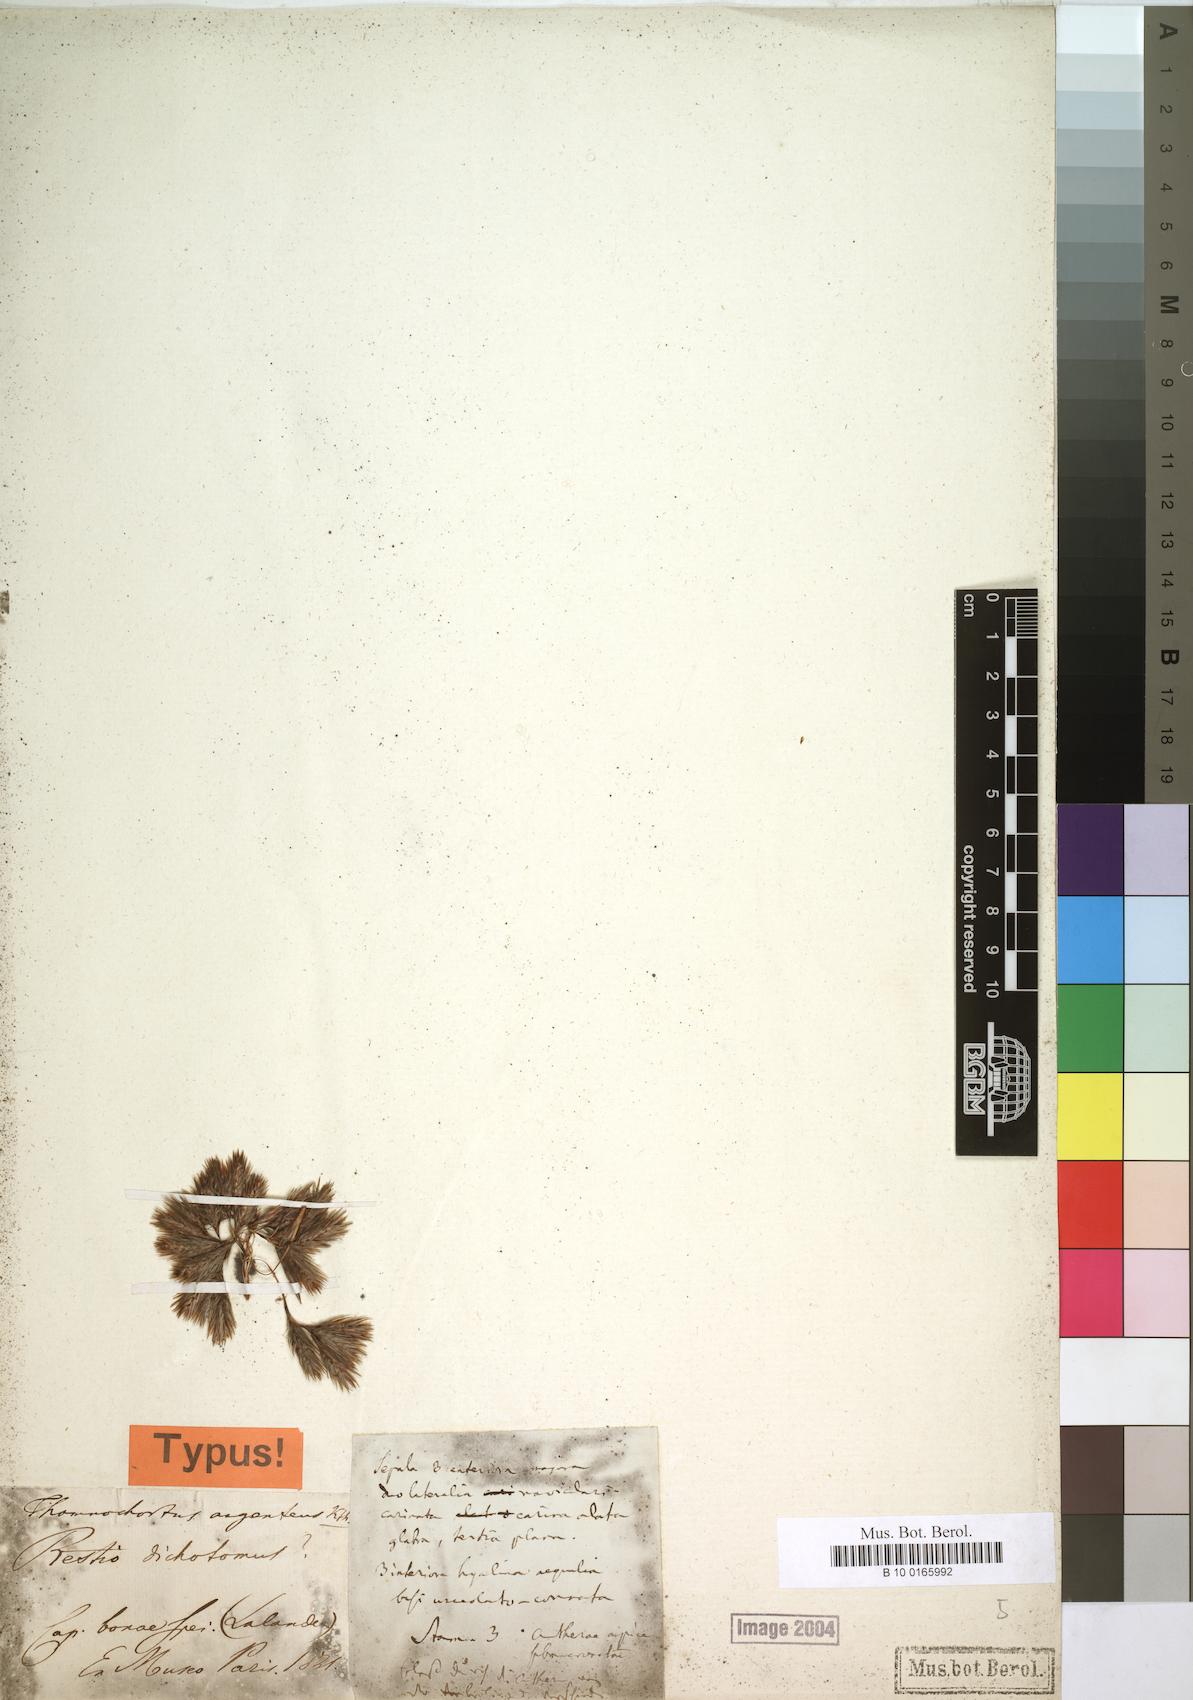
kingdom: Plantae
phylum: Tracheophyta
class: Liliopsida
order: Poales
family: Restionaceae
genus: Hypodiscus
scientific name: Hypodiscus argenteus
